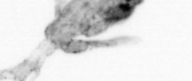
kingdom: Animalia
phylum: Arthropoda
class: Copepoda
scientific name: Copepoda
